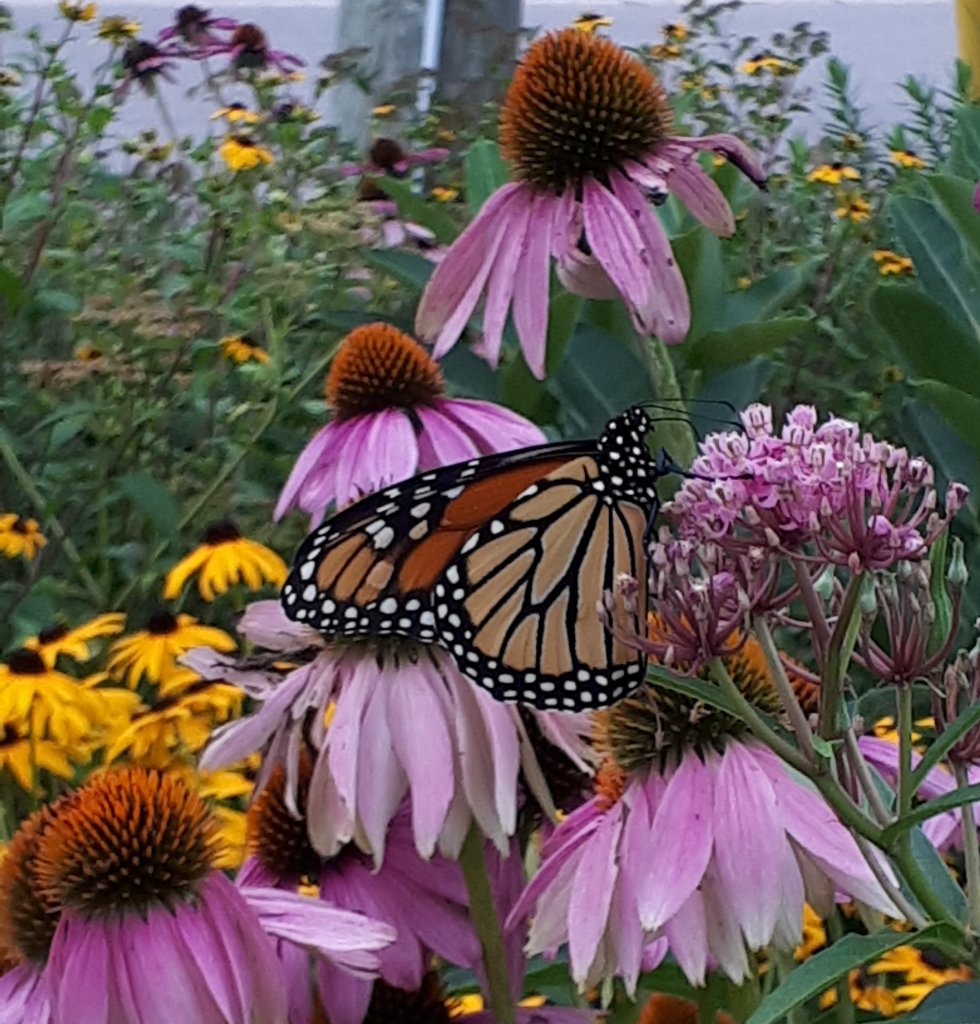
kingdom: Animalia
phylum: Arthropoda
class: Insecta
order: Lepidoptera
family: Nymphalidae
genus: Danaus
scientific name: Danaus plexippus
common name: Monarch
